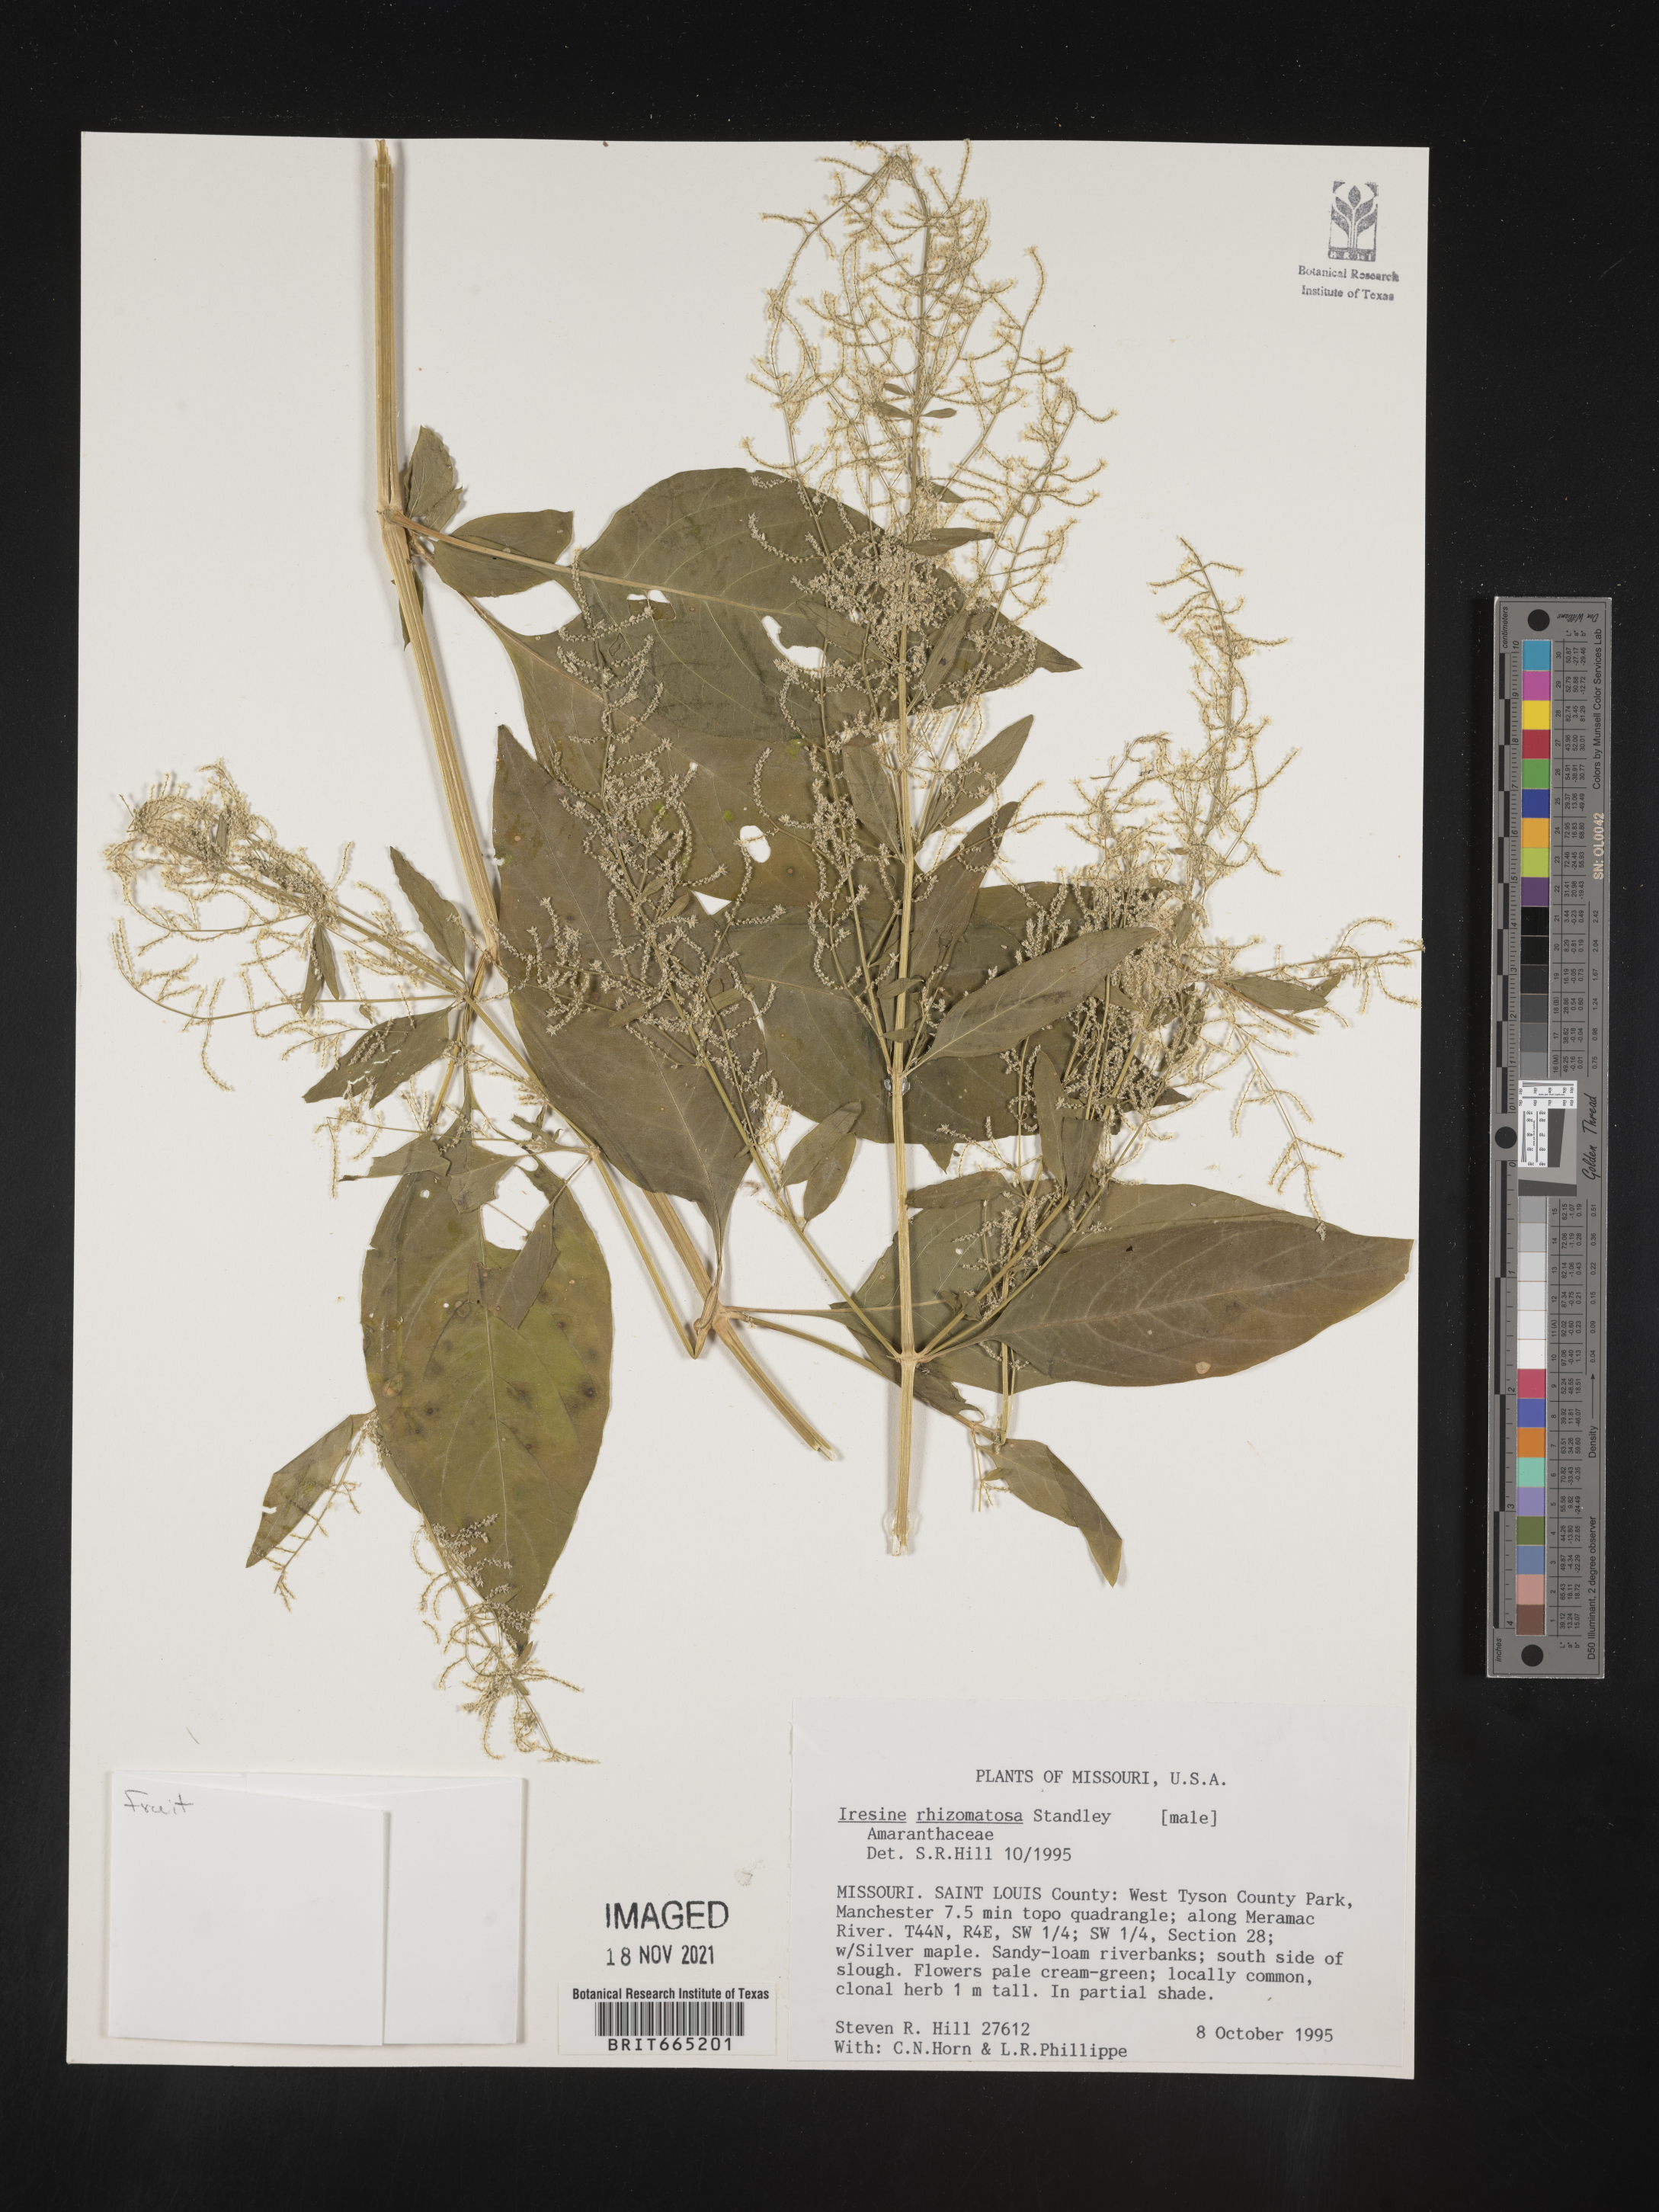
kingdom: Plantae
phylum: Tracheophyta
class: Magnoliopsida
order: Caryophyllales
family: Amaranthaceae
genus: Iresine
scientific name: Iresine rhizomatosa
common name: Juda's-bush
